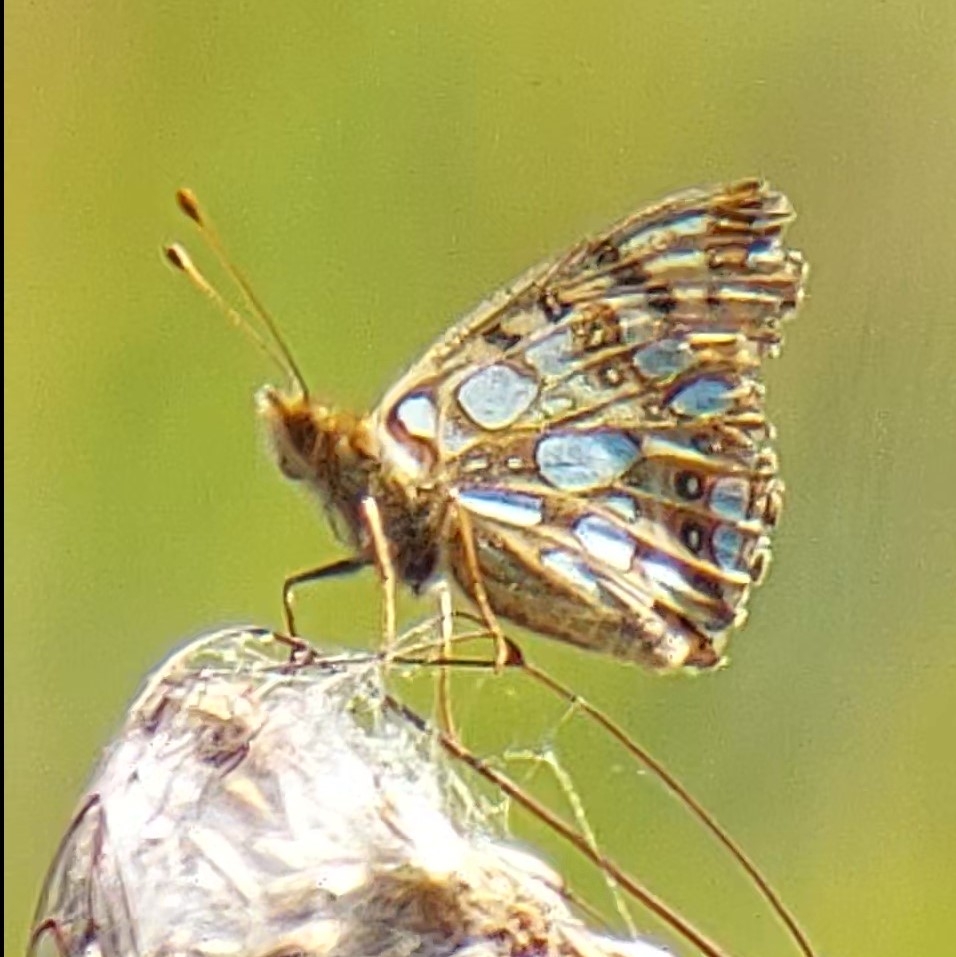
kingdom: Animalia
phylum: Arthropoda
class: Insecta
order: Lepidoptera
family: Nymphalidae
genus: Issoria
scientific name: Issoria lathonia
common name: Storplettet perlemorsommerfugl
